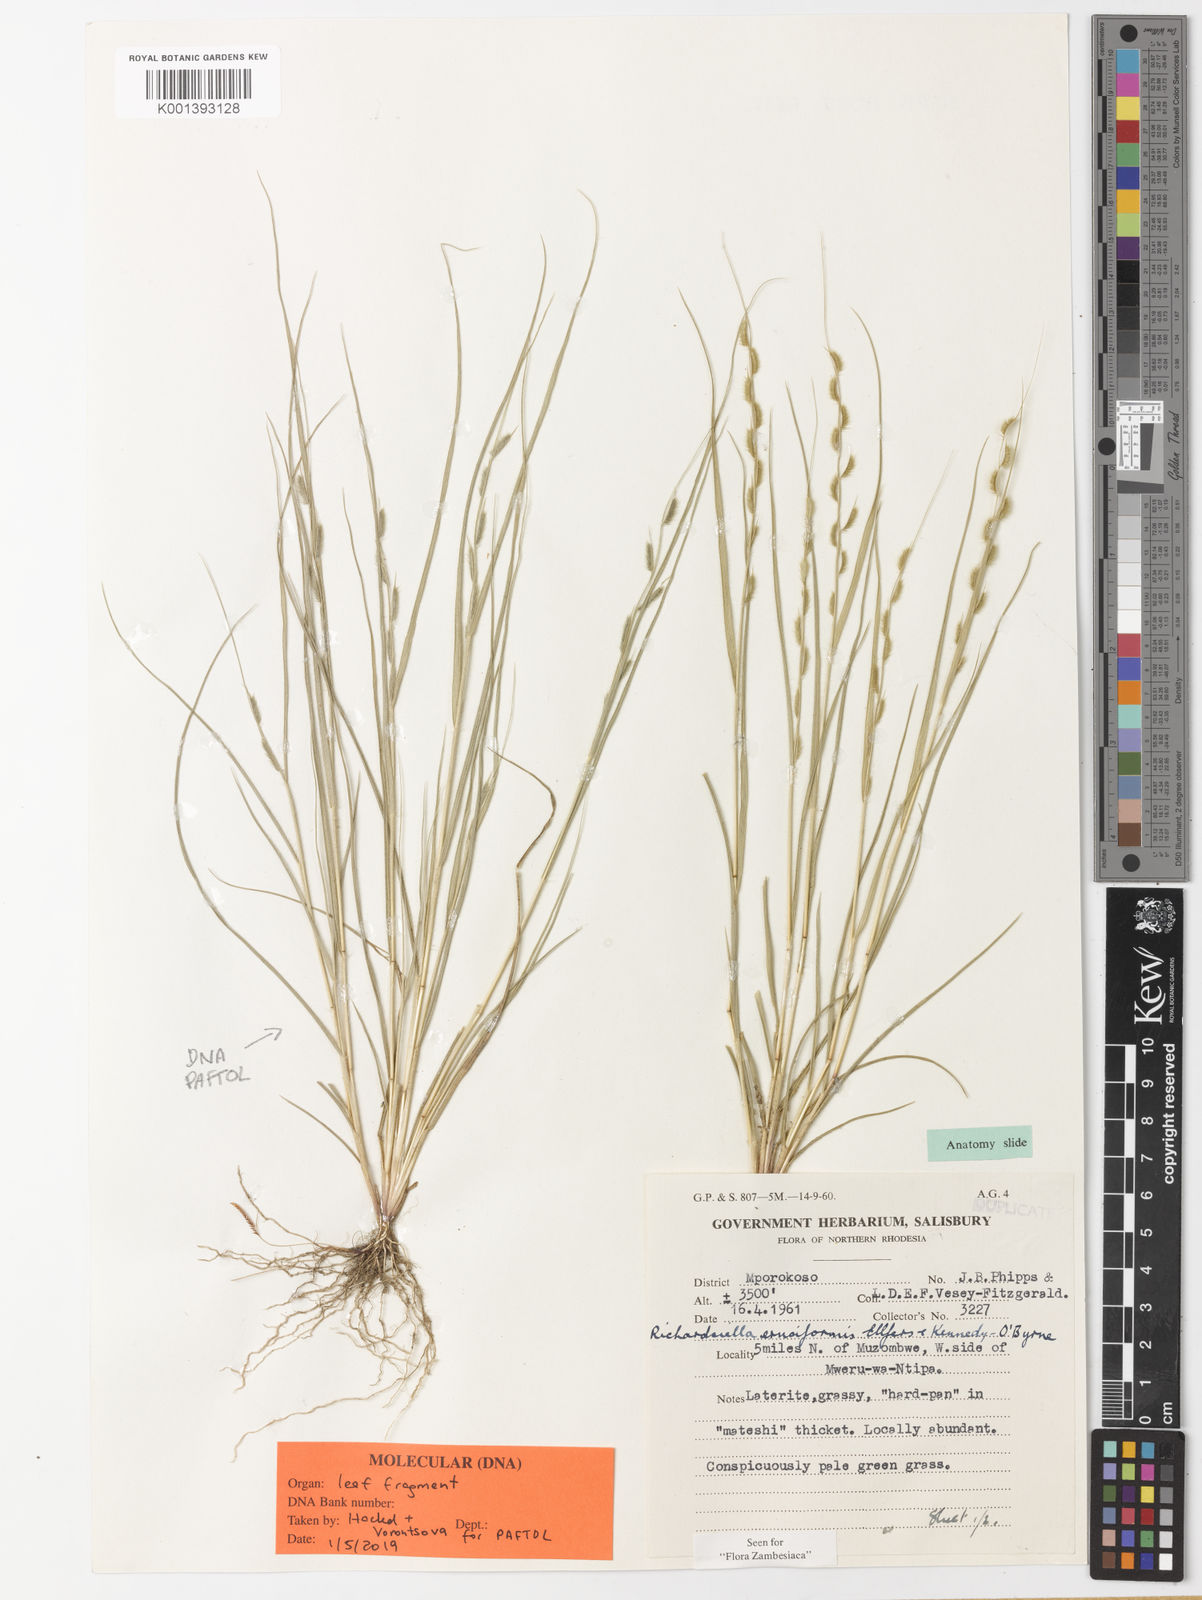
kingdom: Plantae
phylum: Tracheophyta
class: Liliopsida
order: Poales
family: Poaceae
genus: Richardsiella
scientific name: Richardsiella eruciformis
